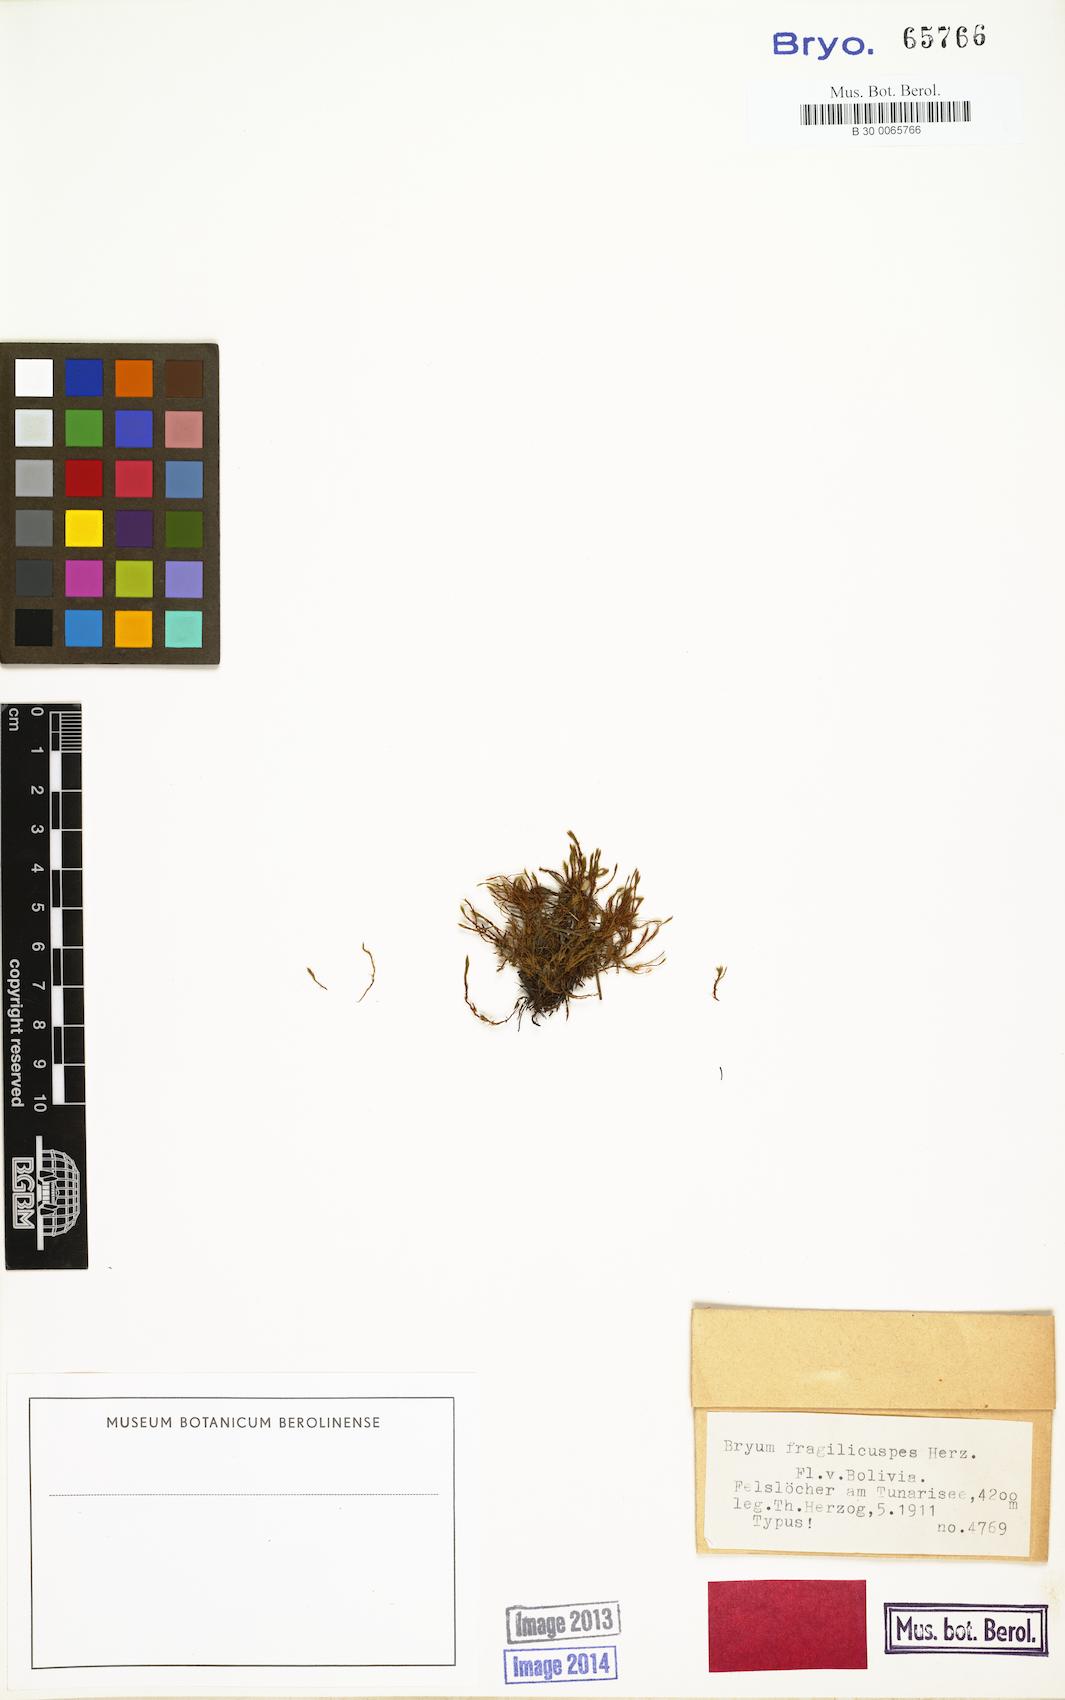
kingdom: Plantae
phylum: Bryophyta
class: Bryopsida
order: Bryales
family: Bryaceae
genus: Imbribryum
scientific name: Imbribryum paradoxum
